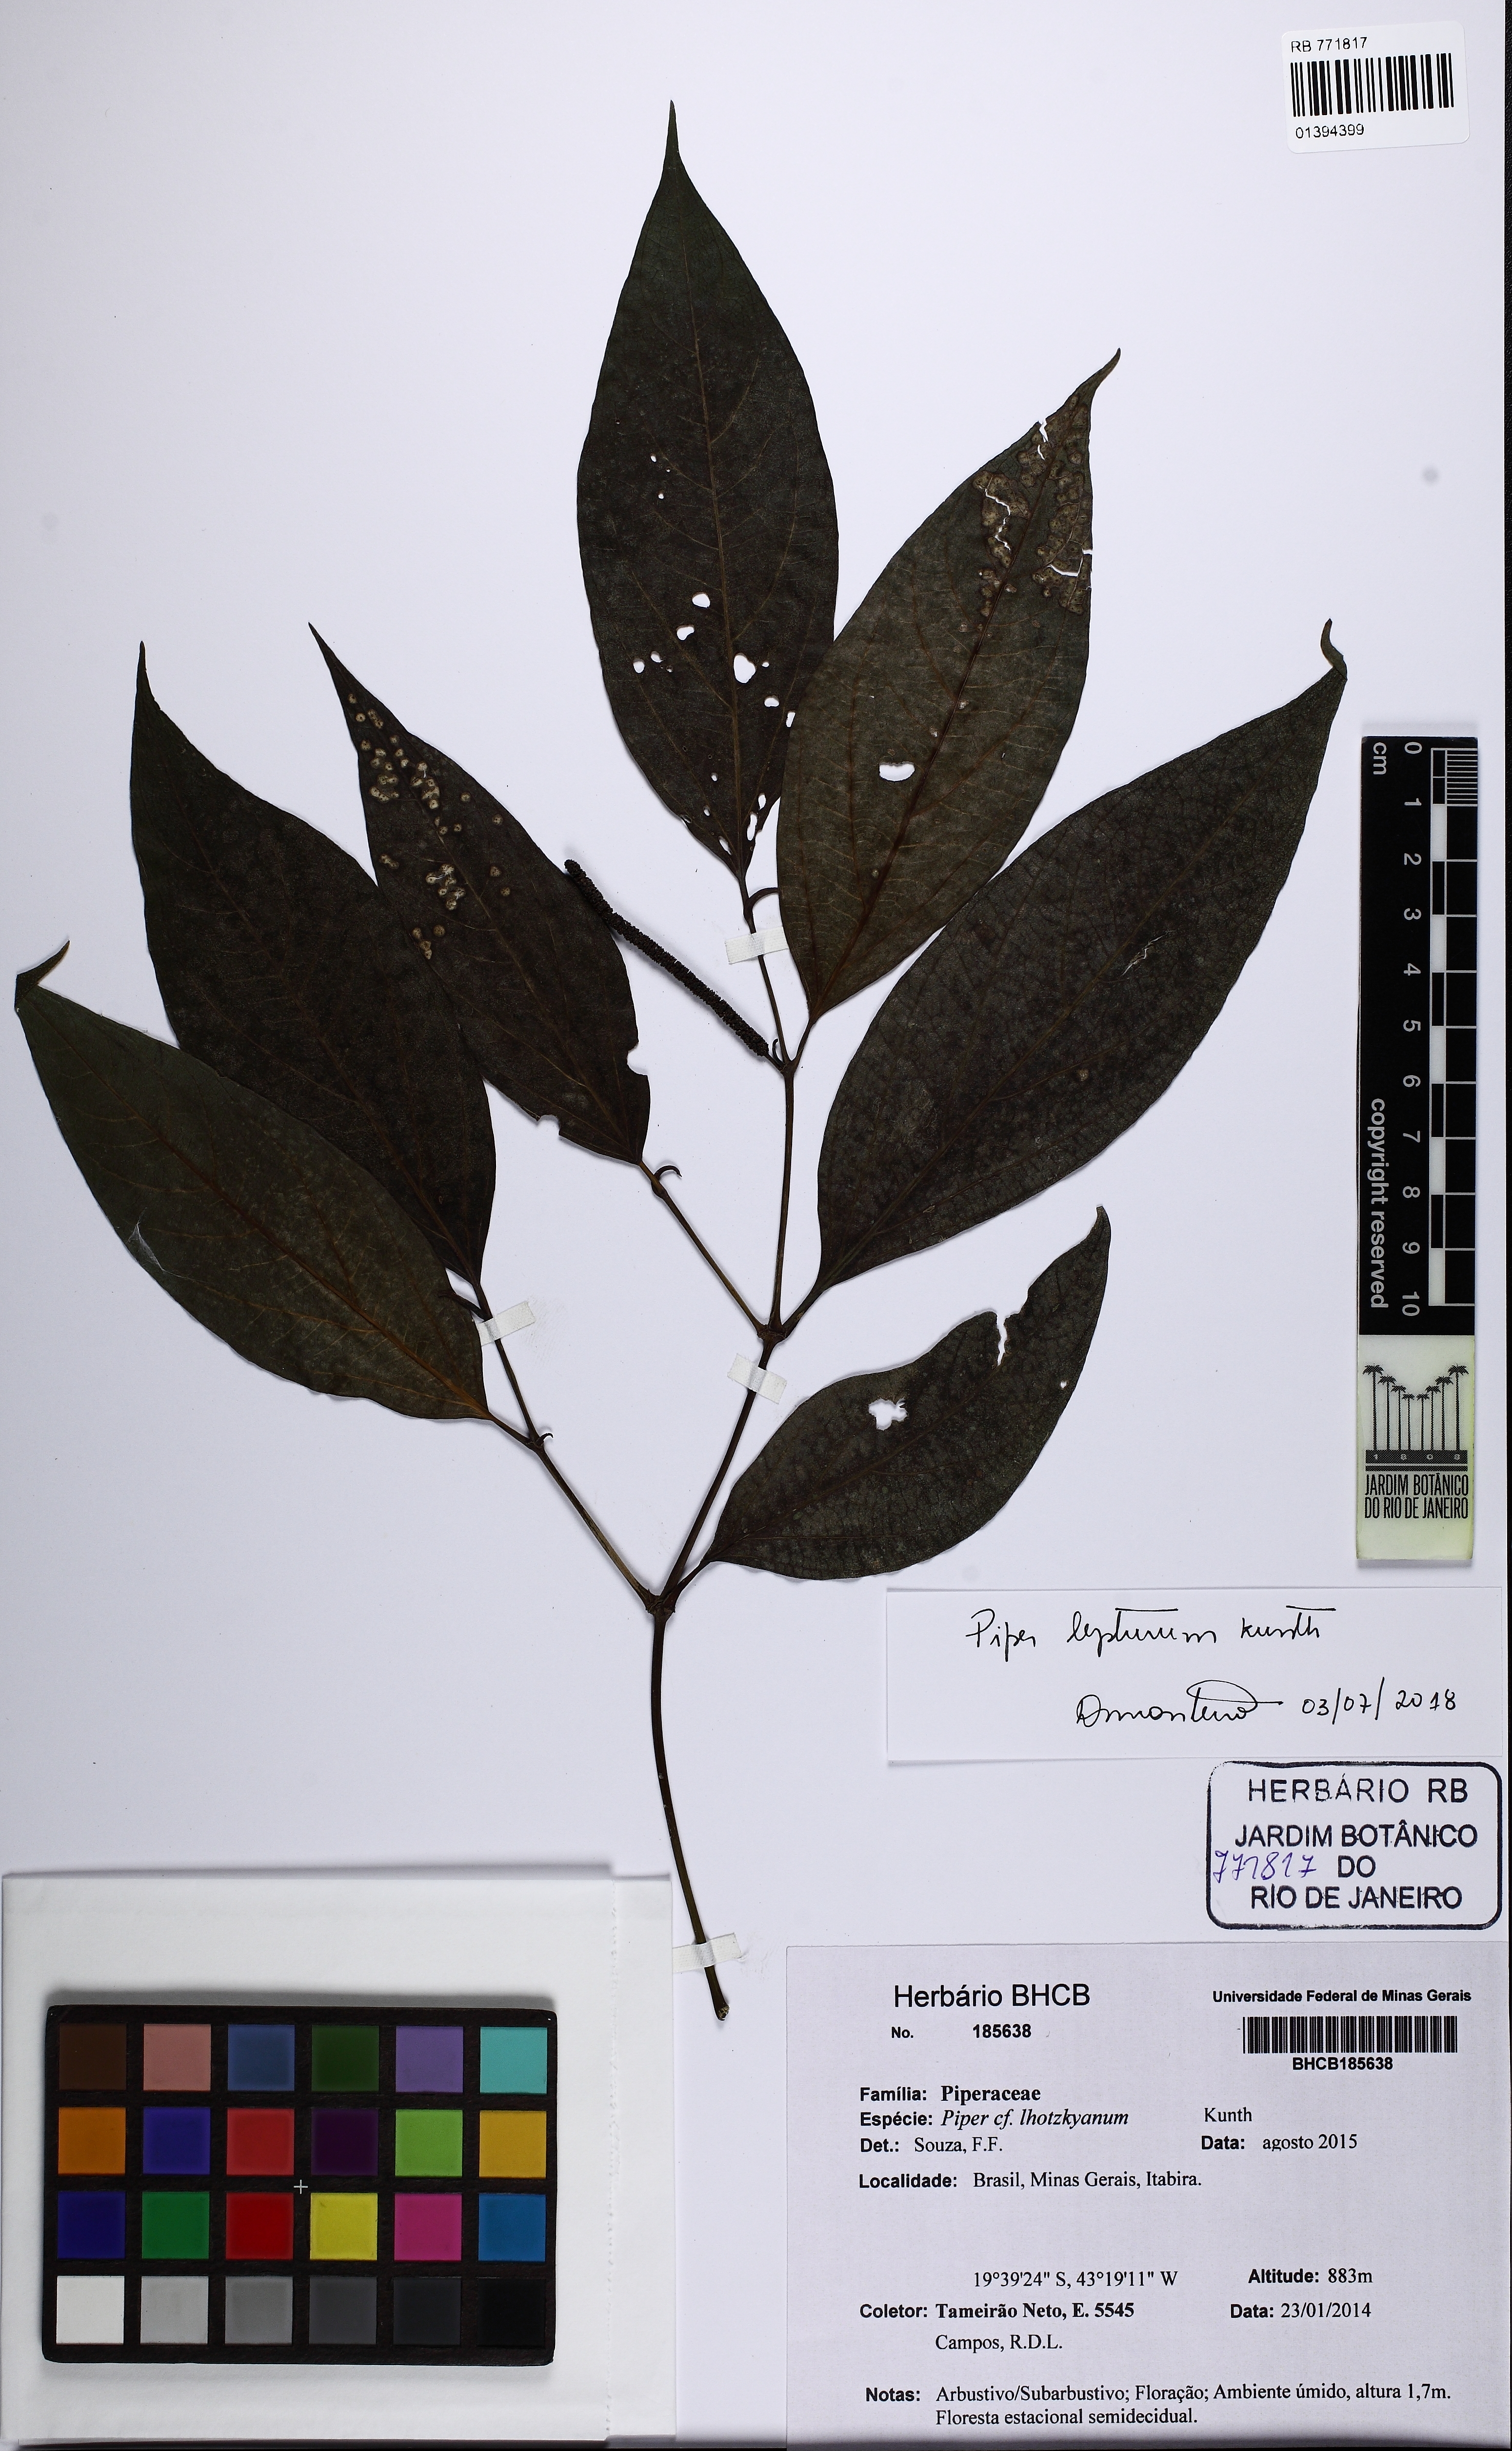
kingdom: Plantae
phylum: Tracheophyta
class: Magnoliopsida
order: Piperales
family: Piperaceae
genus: Piper
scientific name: Piper lepturum
